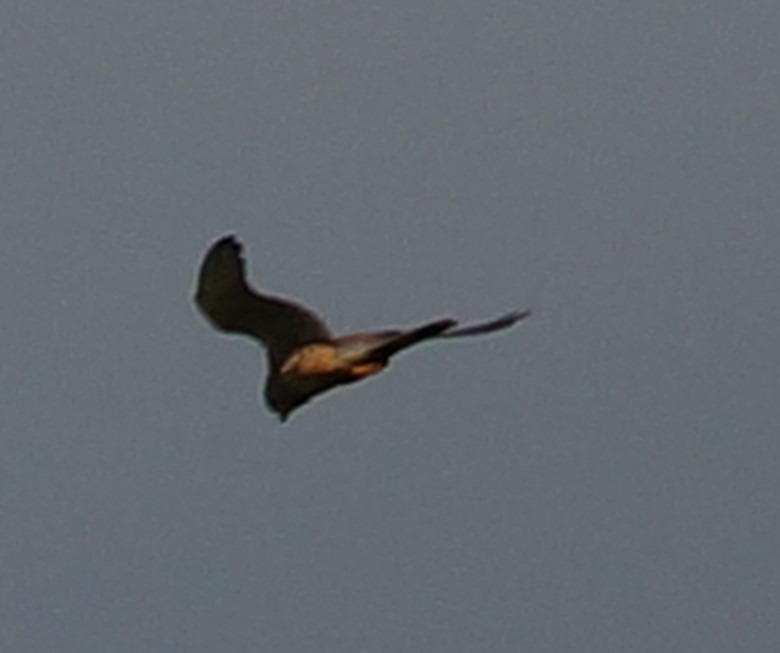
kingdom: Animalia
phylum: Chordata
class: Aves
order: Falconiformes
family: Falconidae
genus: Falco
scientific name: Falco tinnunculus
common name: Tårnfalk
